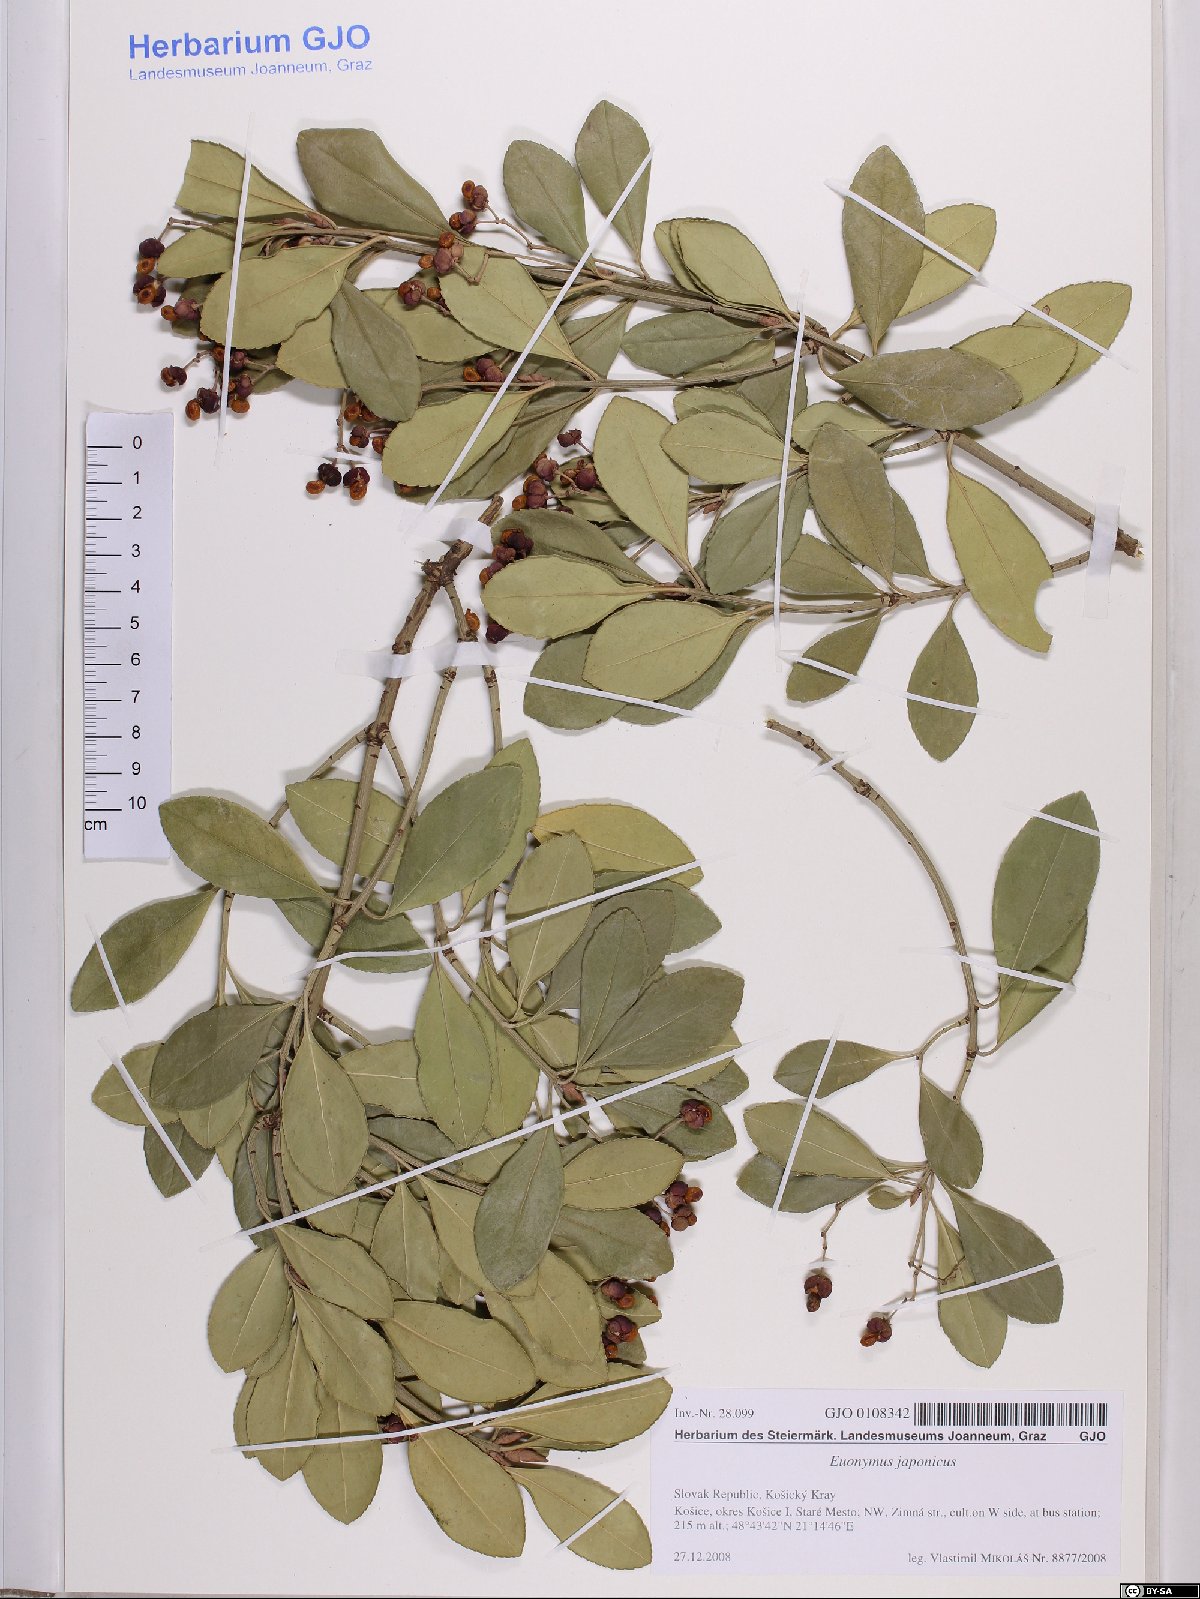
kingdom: Plantae
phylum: Tracheophyta
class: Magnoliopsida
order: Celastrales
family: Celastraceae
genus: Euonymus
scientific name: Euonymus fortunei
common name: Climbing euonymus
